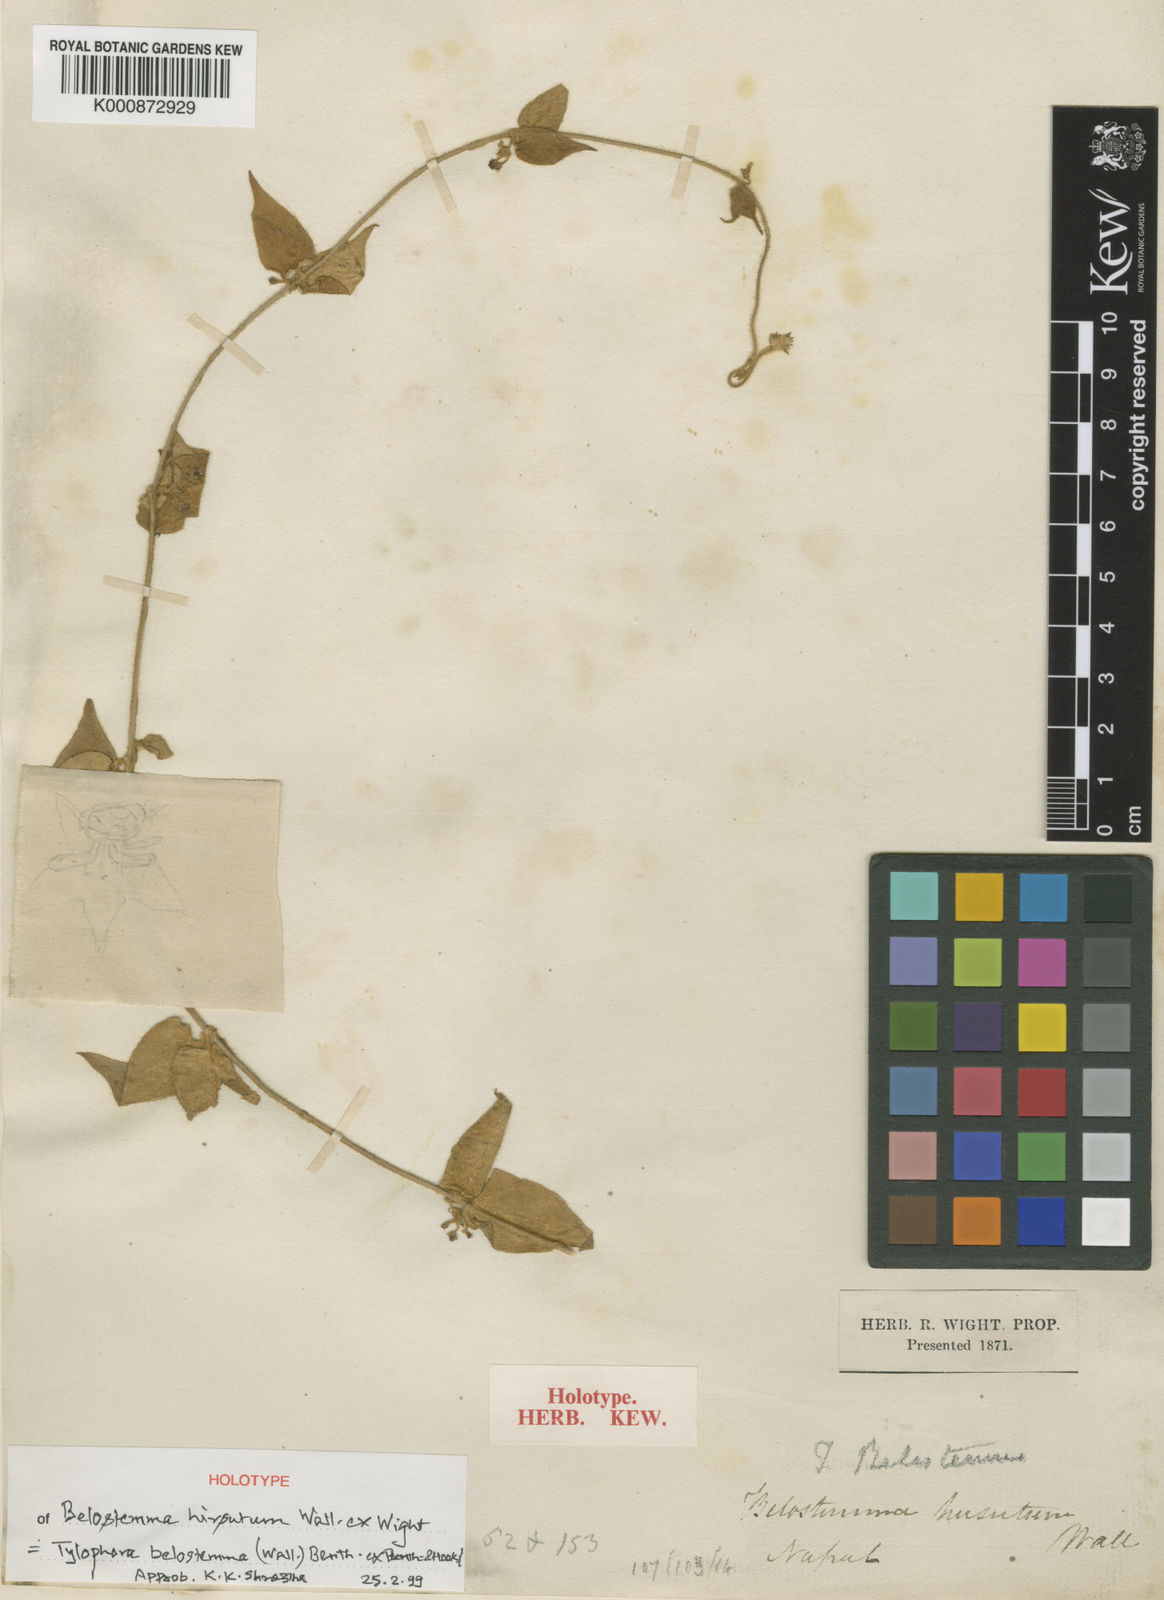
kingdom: Plantae
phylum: Tracheophyta
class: Magnoliopsida
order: Gentianales
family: Apocynaceae
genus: Vincetoxicum
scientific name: Vincetoxicum belostemma
